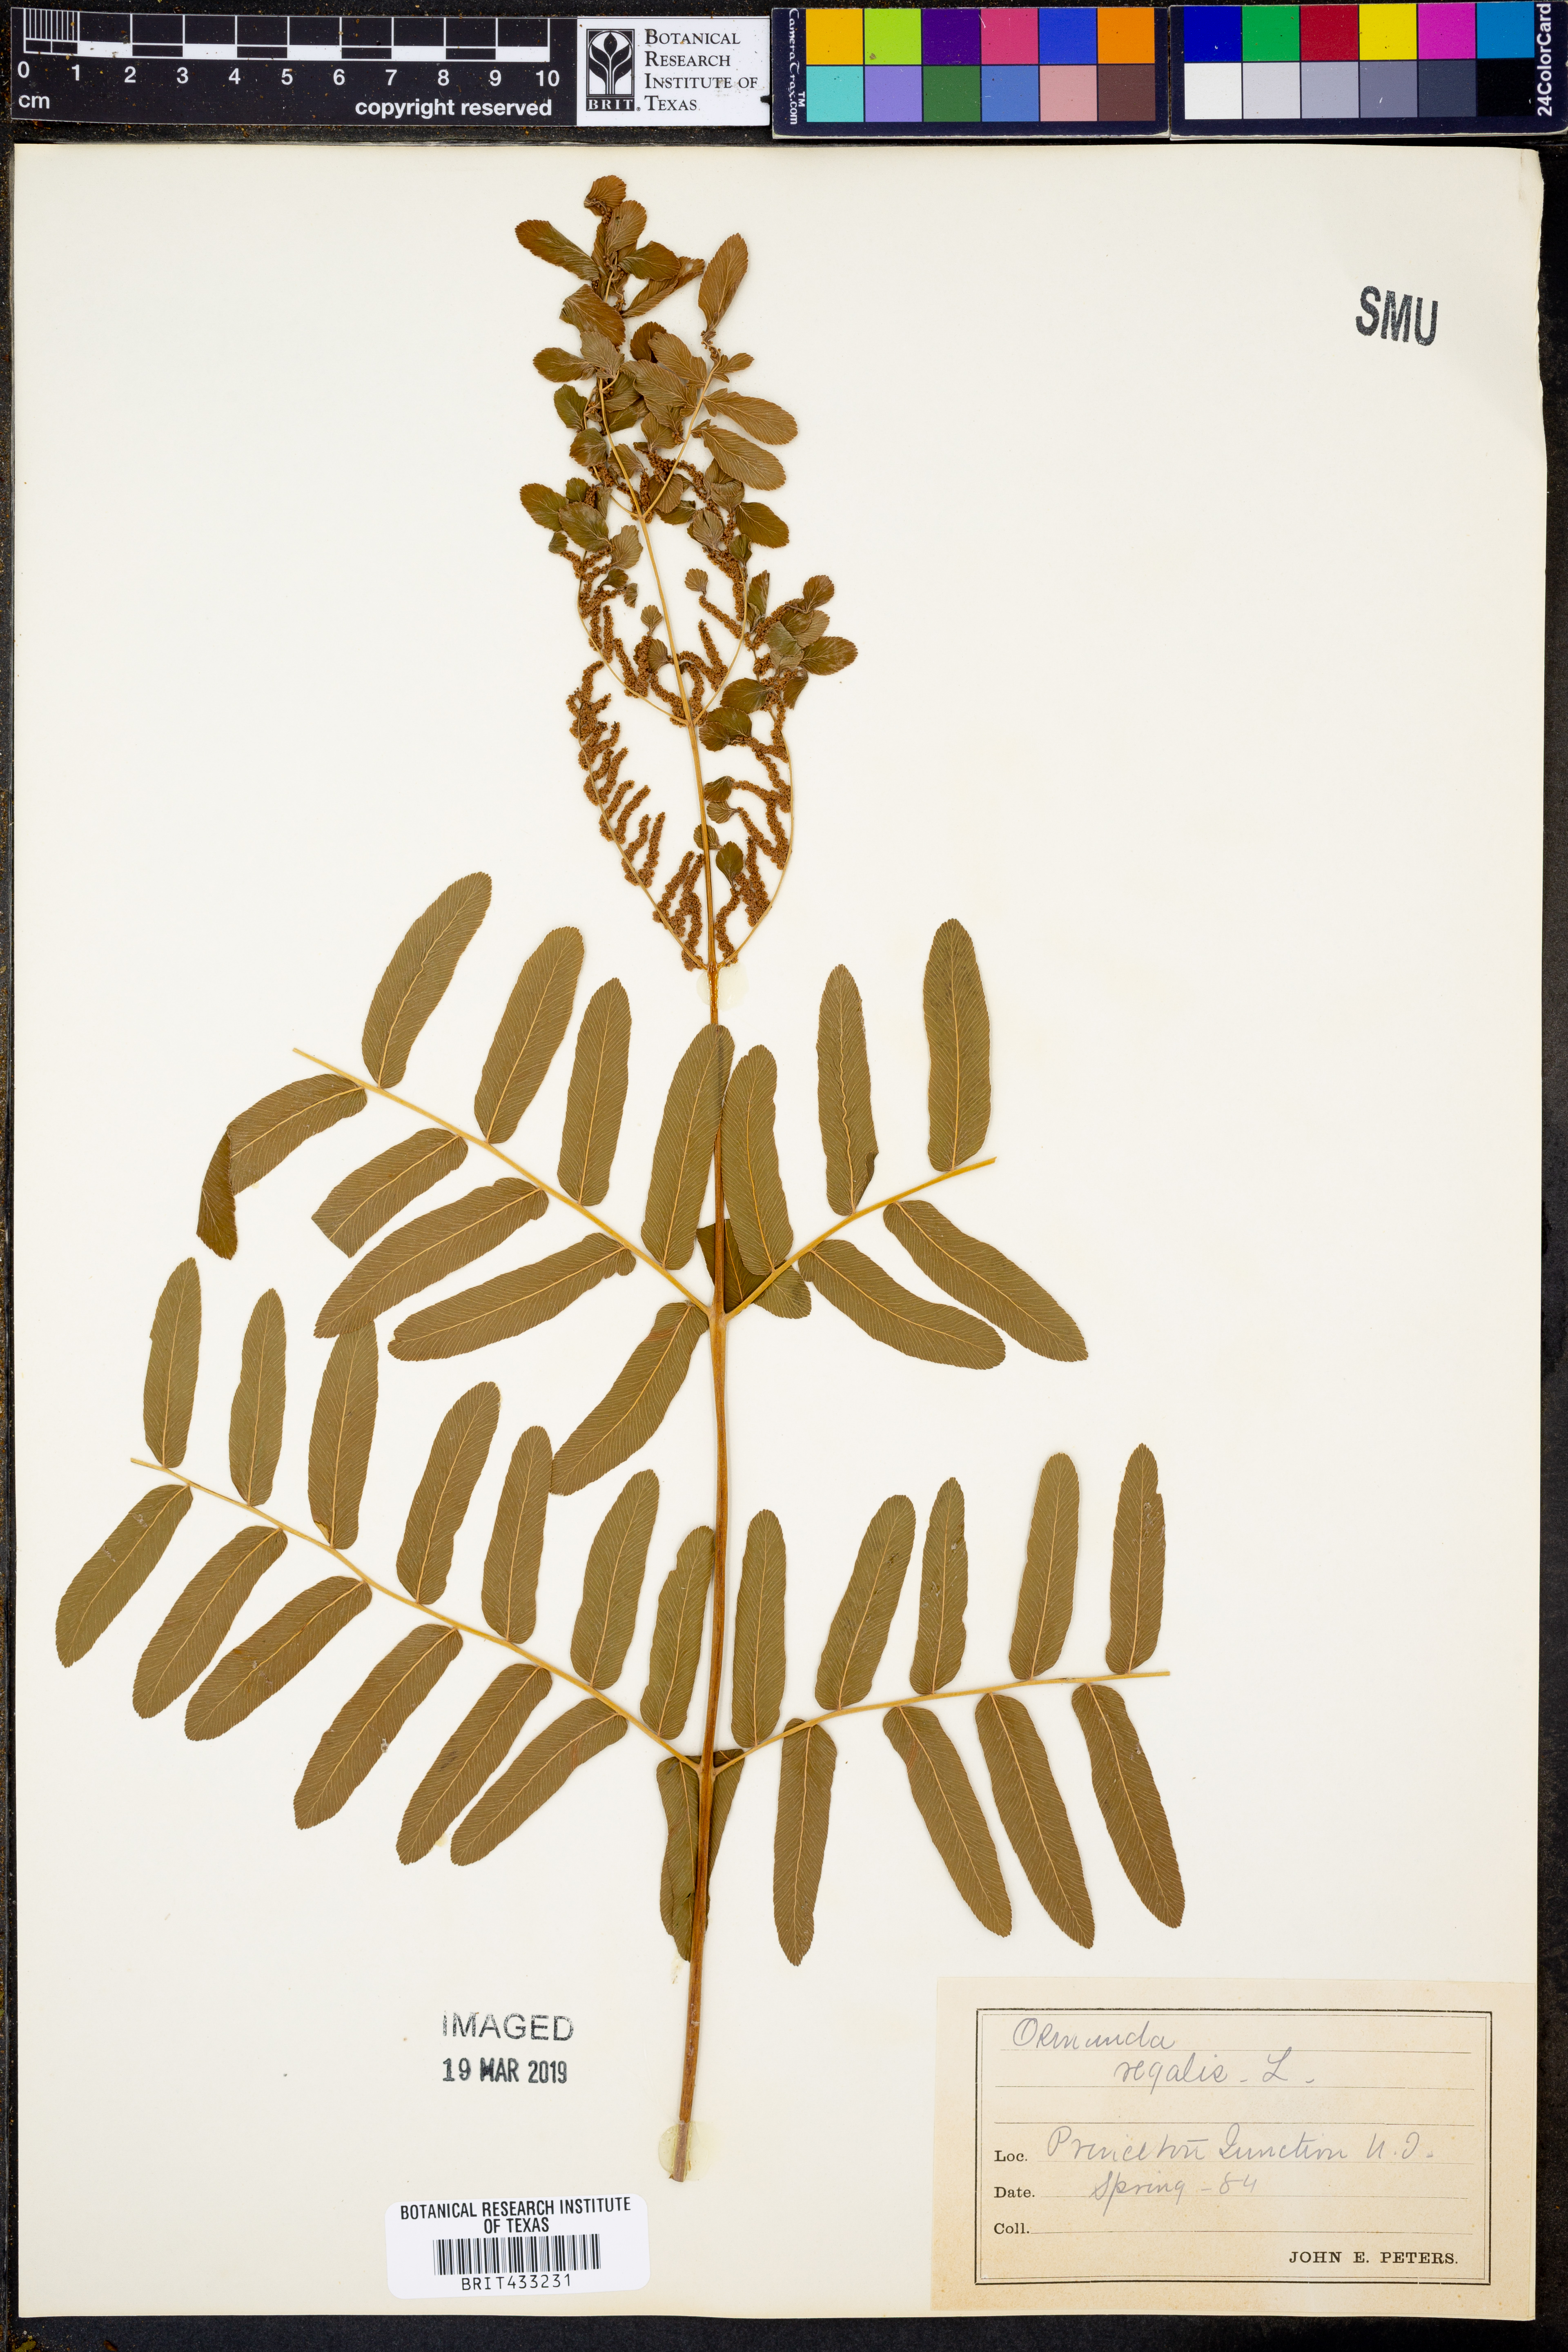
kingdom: Plantae
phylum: Tracheophyta
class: Polypodiopsida
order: Osmundales
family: Osmundaceae
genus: Osmunda
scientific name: Osmunda regalis
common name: Royal fern
